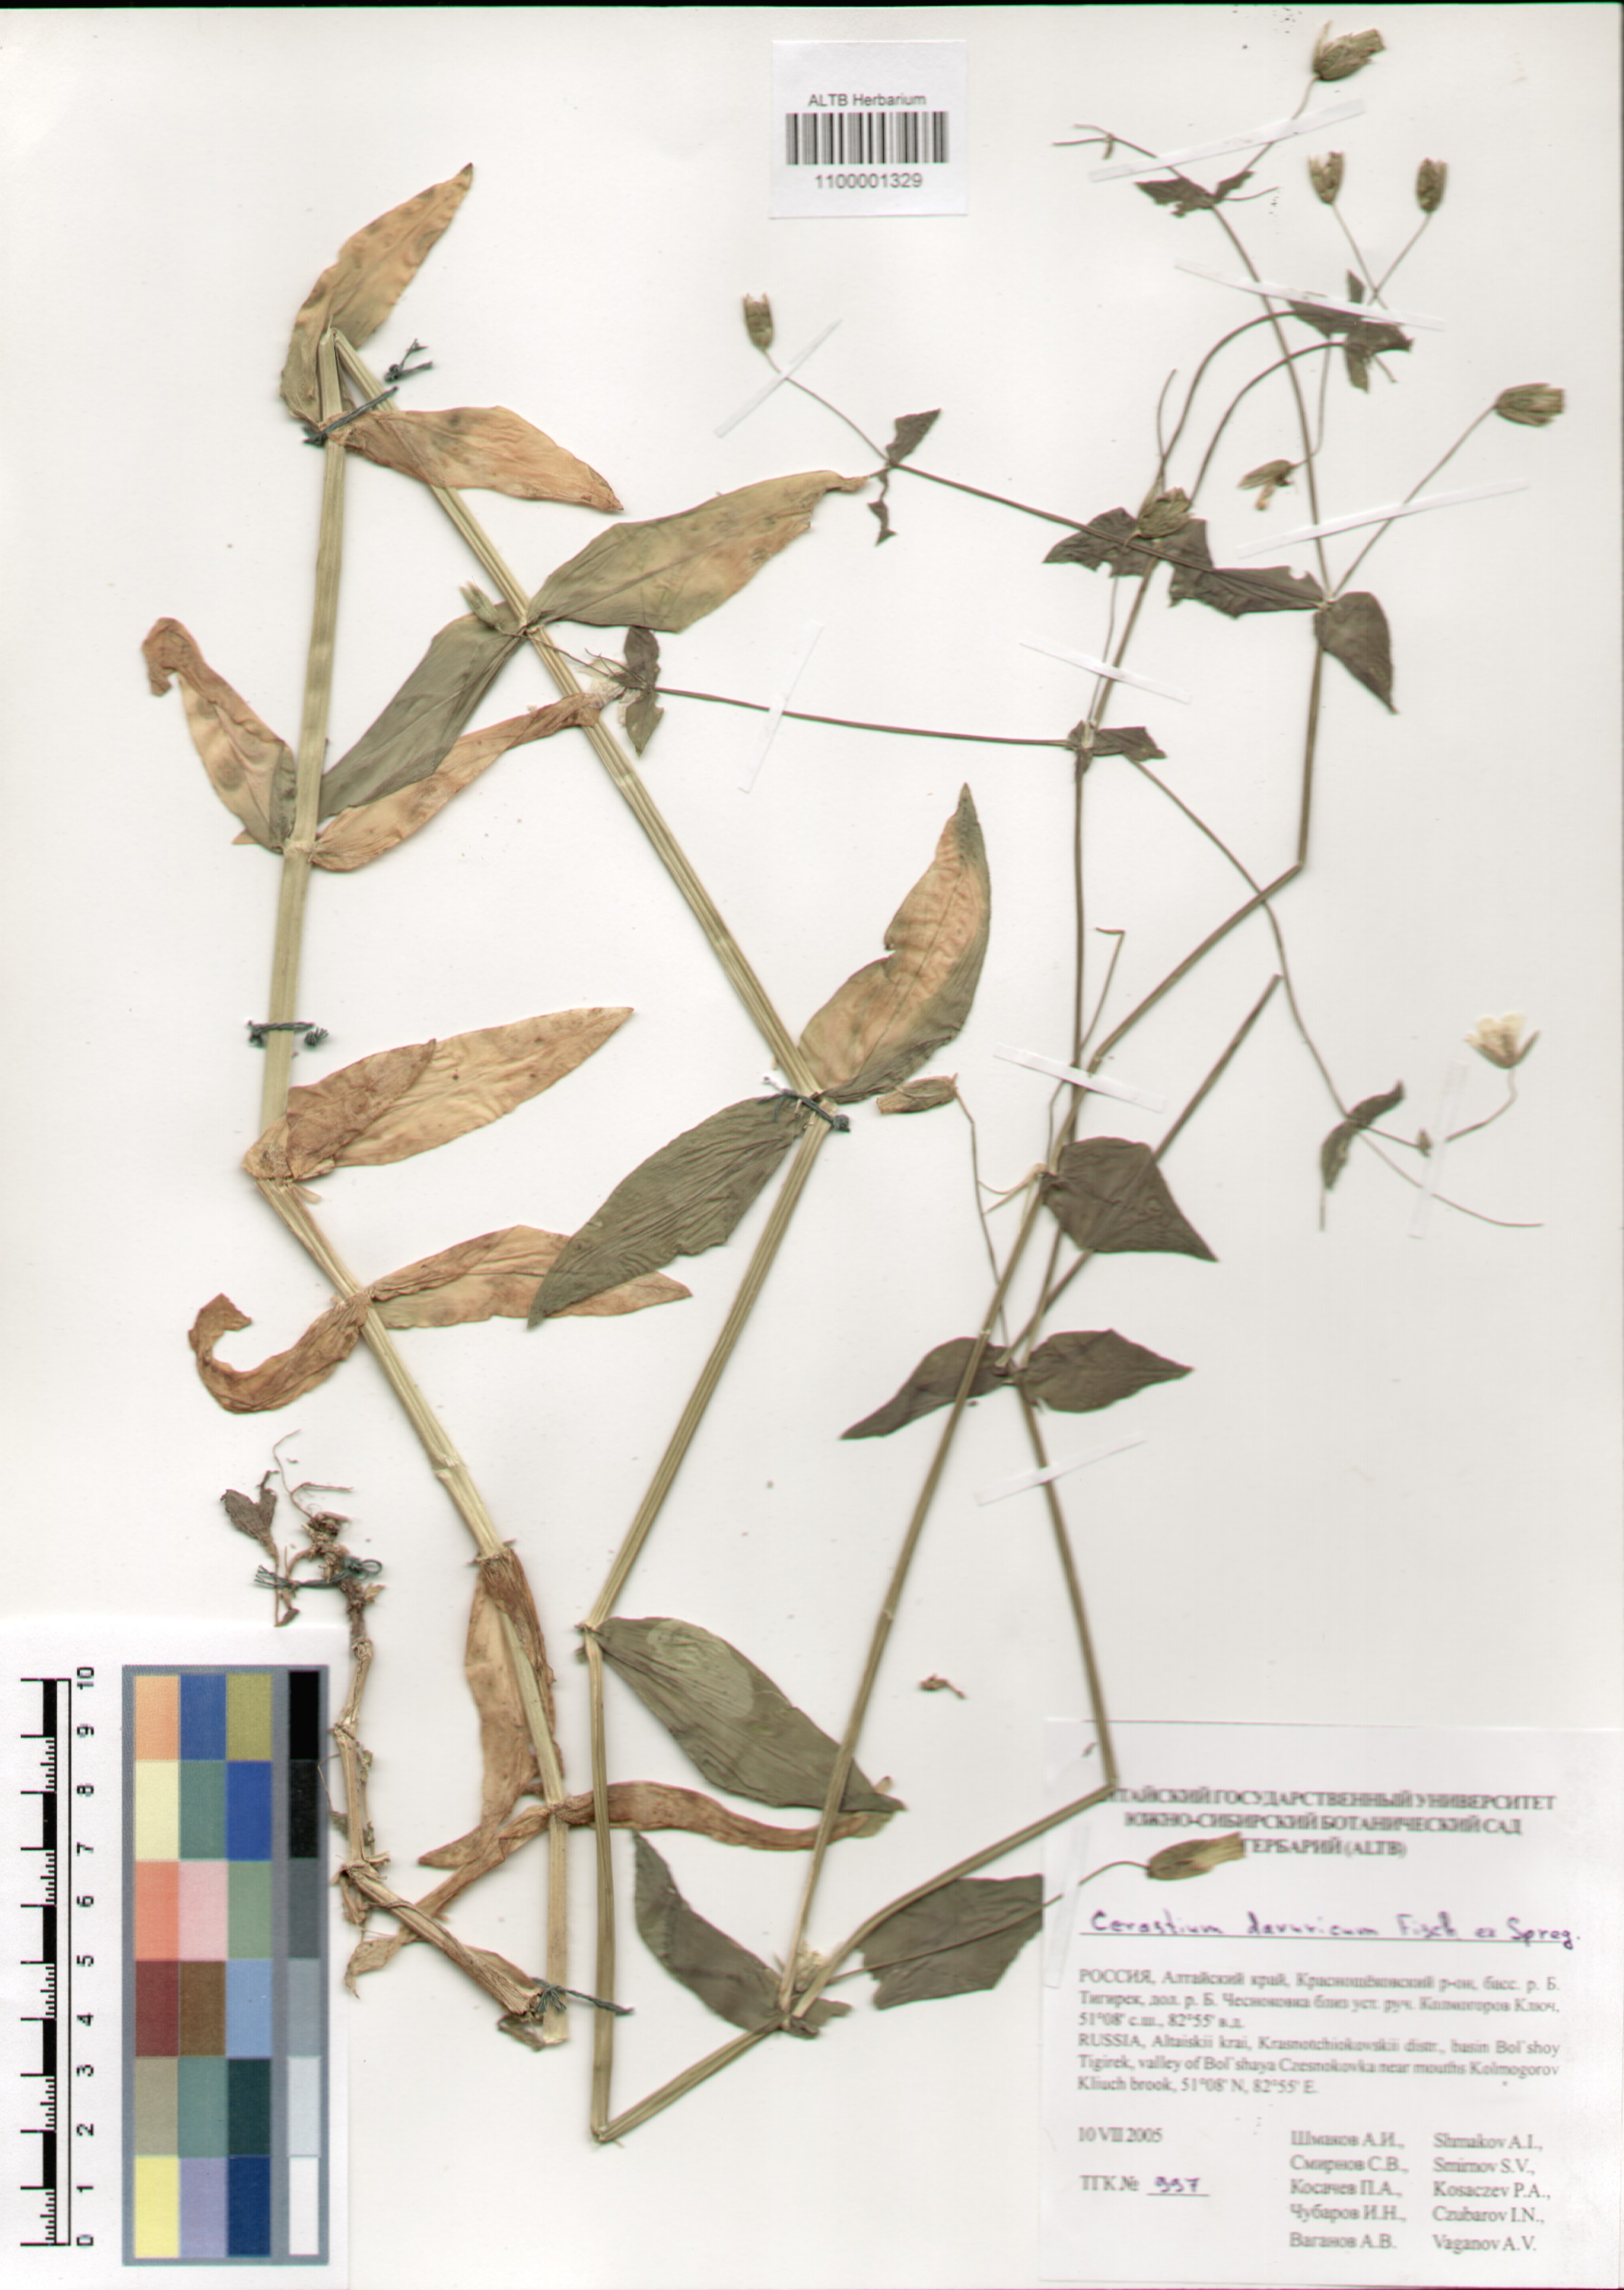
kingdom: Plantae
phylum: Tracheophyta
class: Magnoliopsida
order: Caryophyllales
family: Caryophyllaceae
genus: Dichodon
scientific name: Dichodon davuricum
